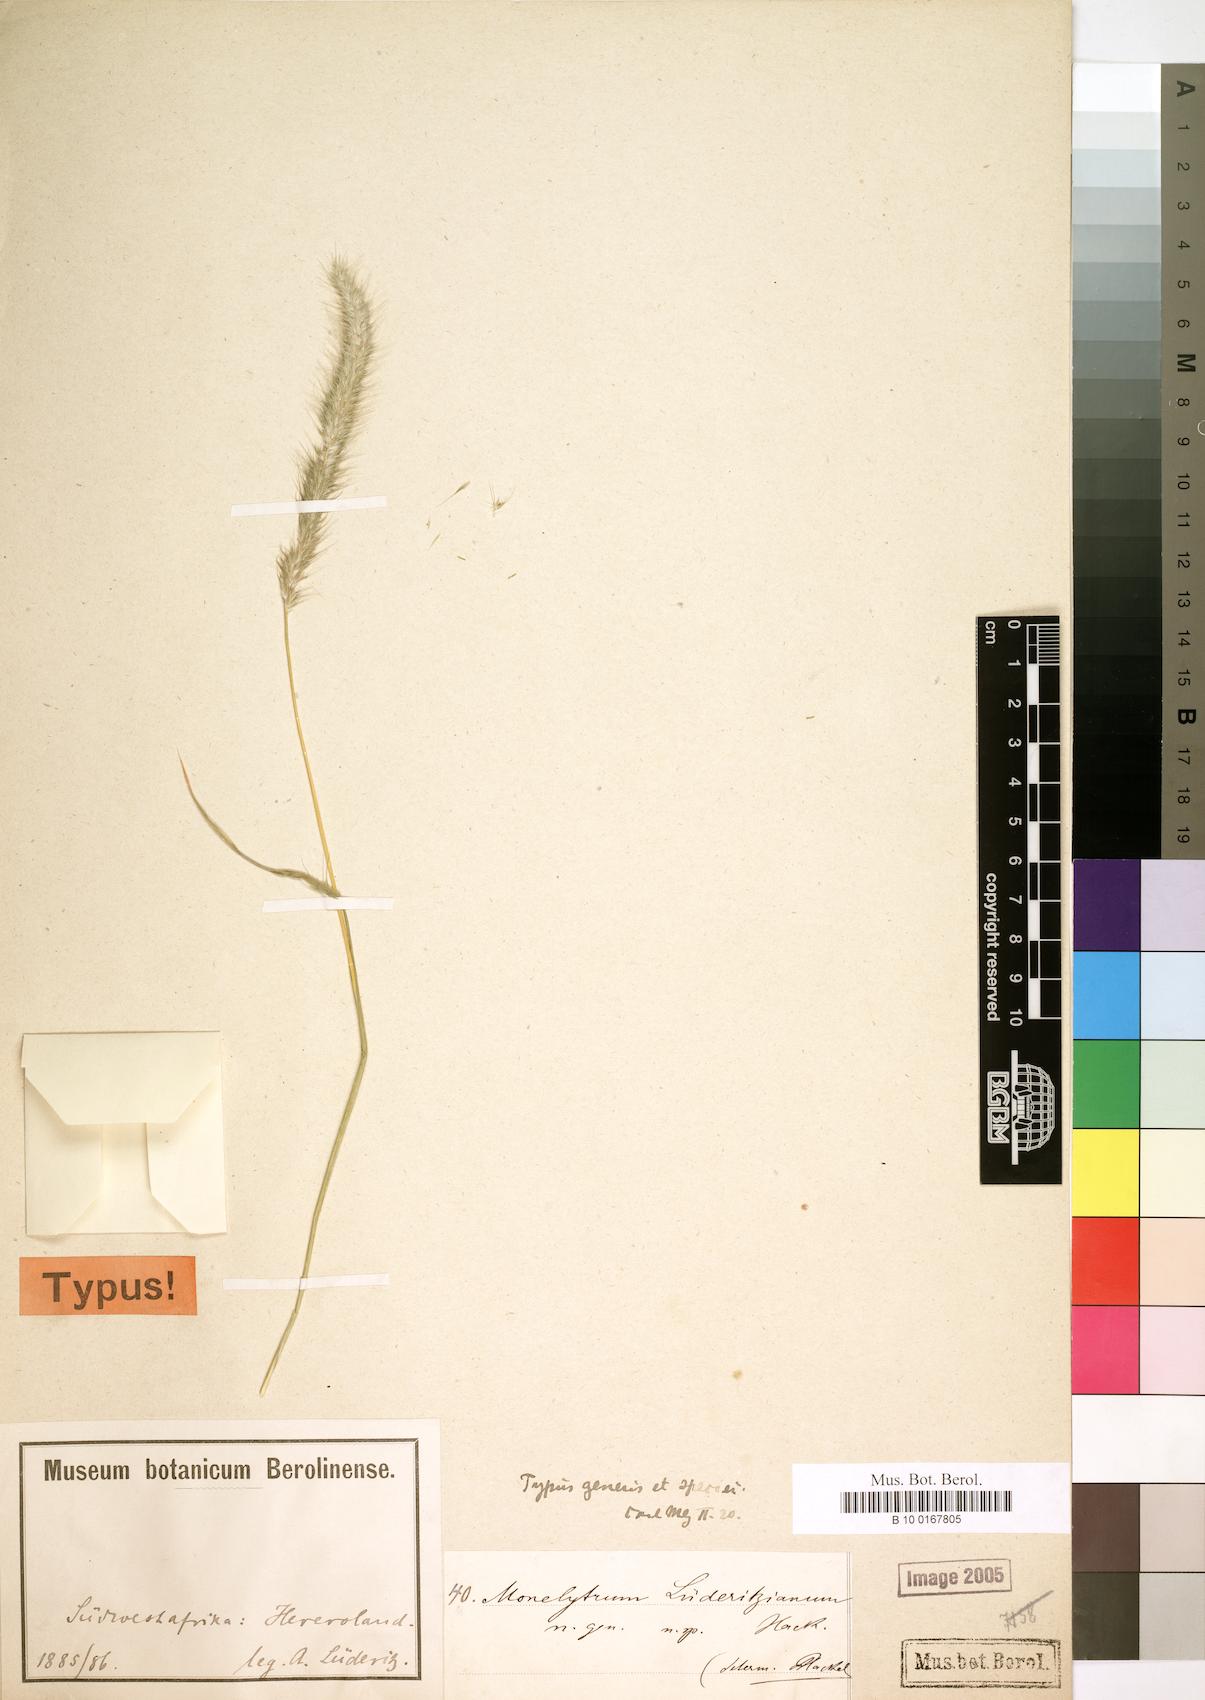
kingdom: Plantae
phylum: Tracheophyta
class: Liliopsida
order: Poales
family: Poaceae
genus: Monelytrum
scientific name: Monelytrum luederitzianum
